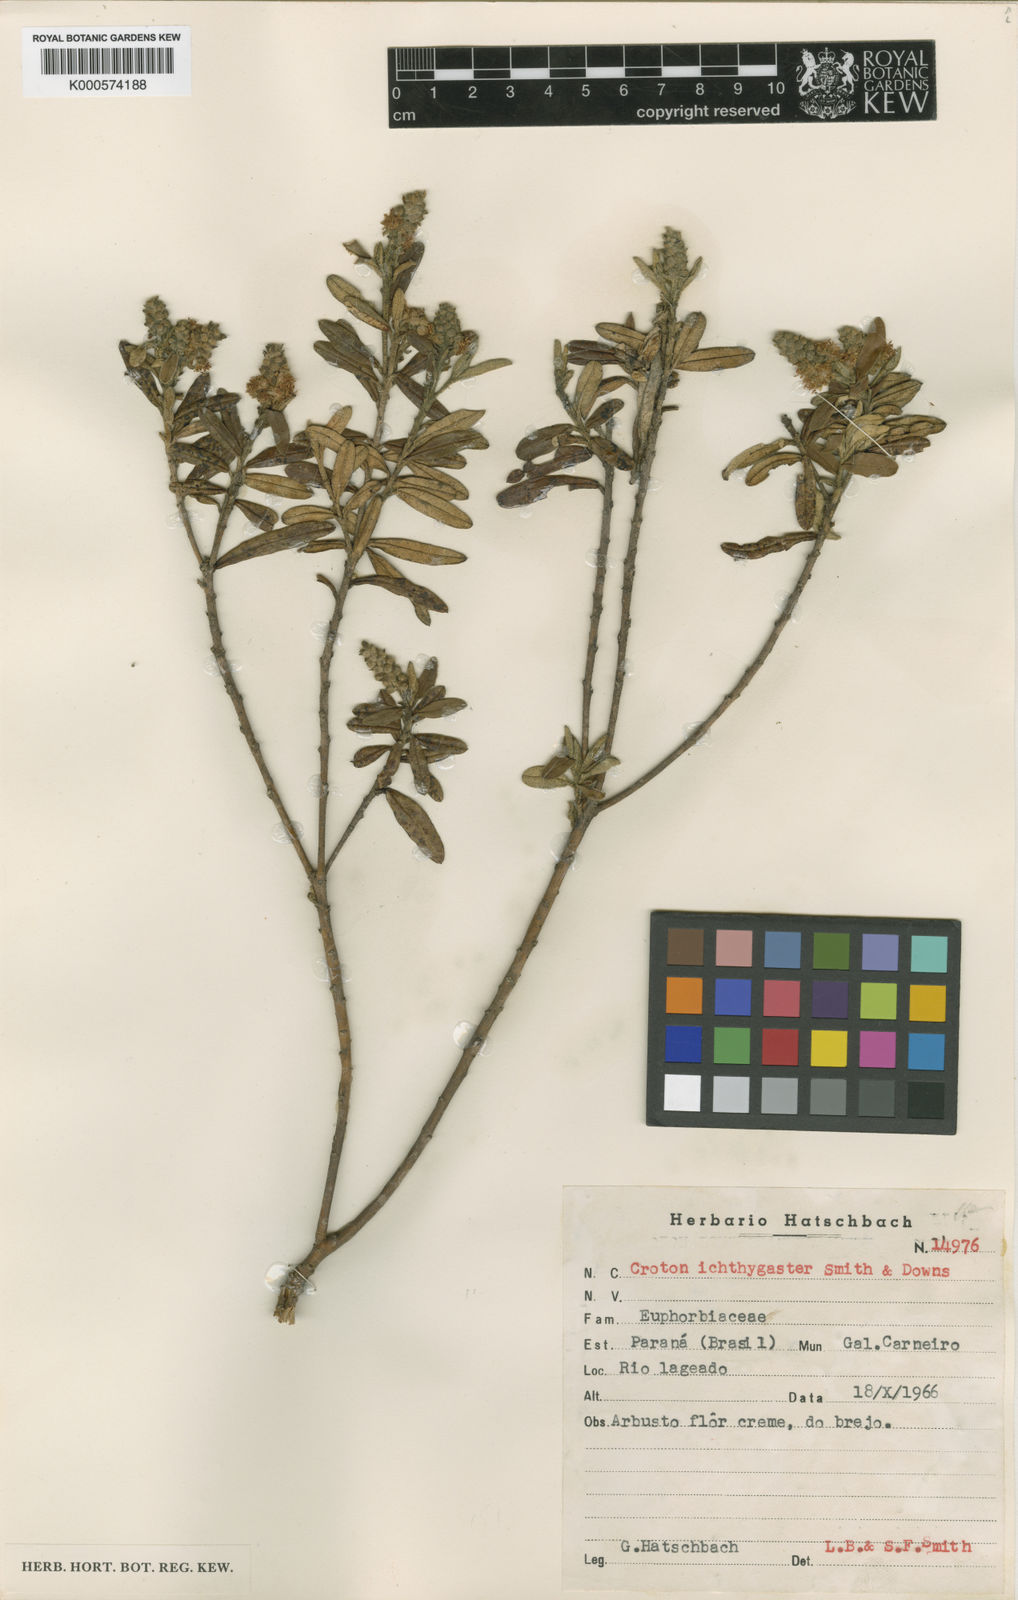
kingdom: Plantae
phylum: Tracheophyta
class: Magnoliopsida
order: Malpighiales
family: Euphorbiaceae
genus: Croton
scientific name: Croton ichthygaster
